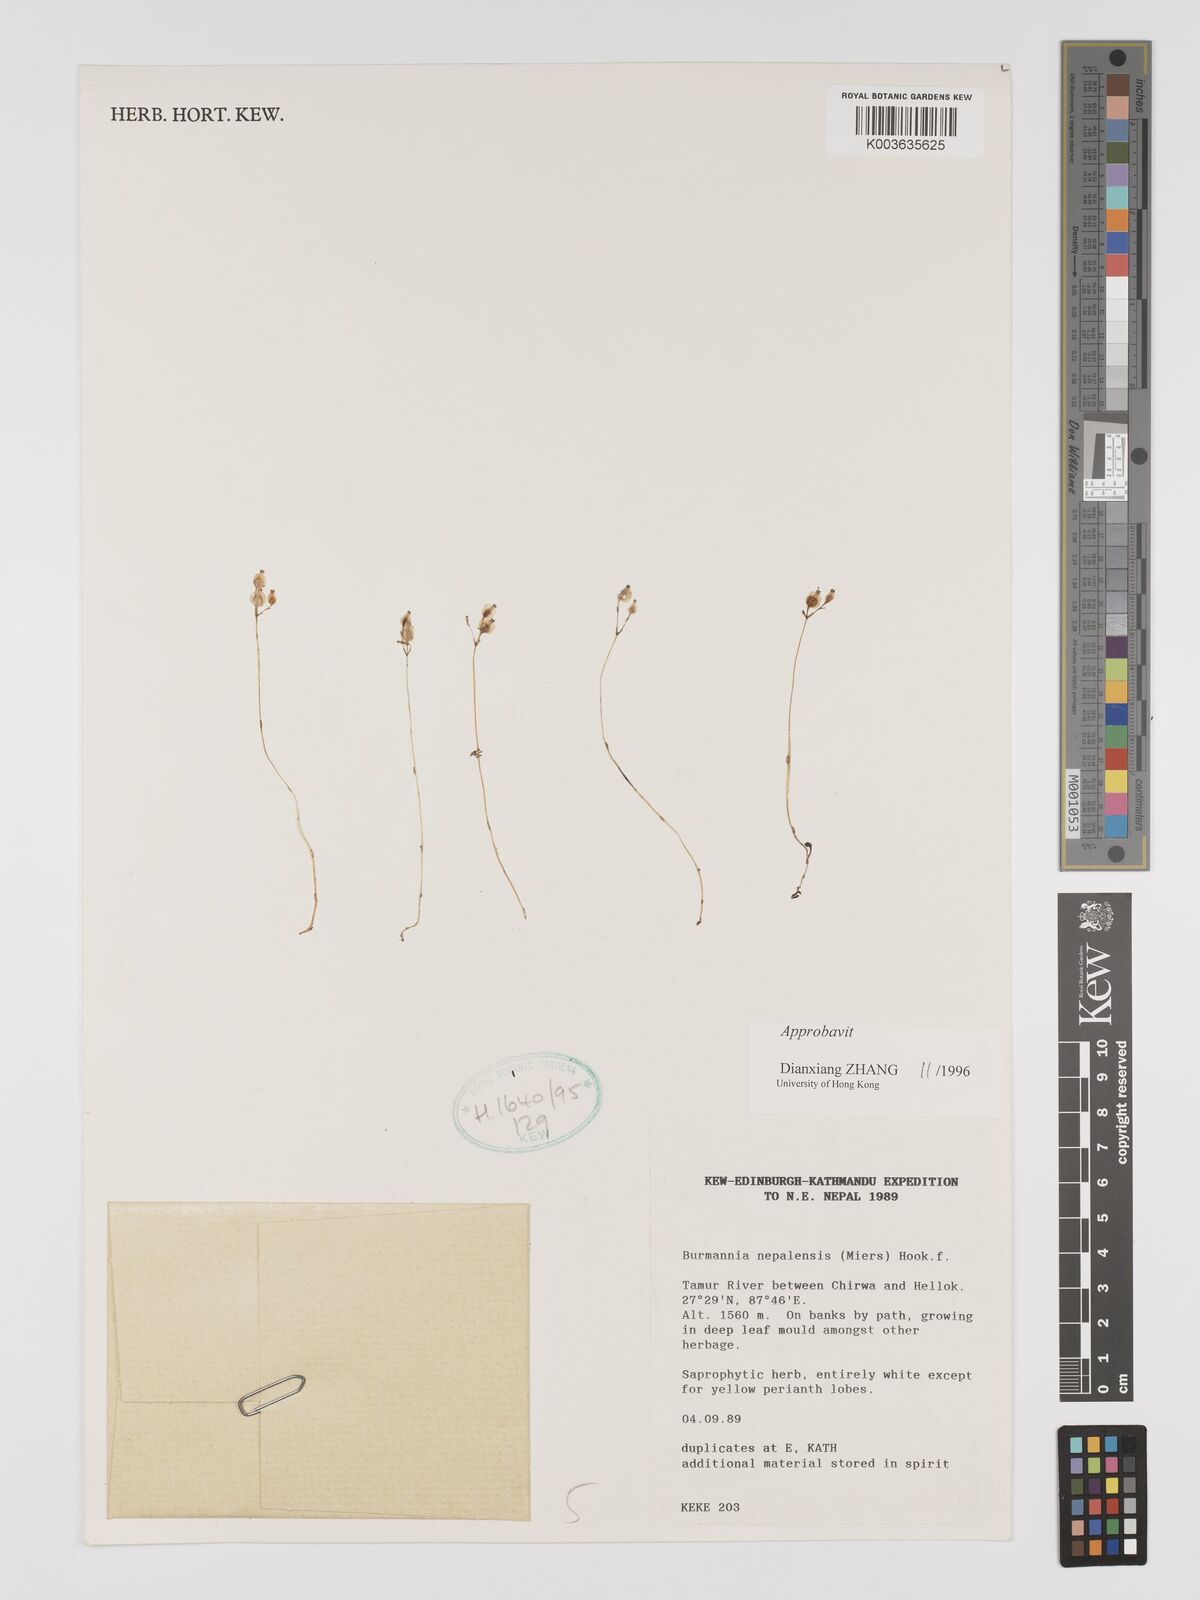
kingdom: Plantae
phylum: Tracheophyta
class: Liliopsida
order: Dioscoreales
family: Burmanniaceae
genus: Burmannia
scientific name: Burmannia nepalensis
